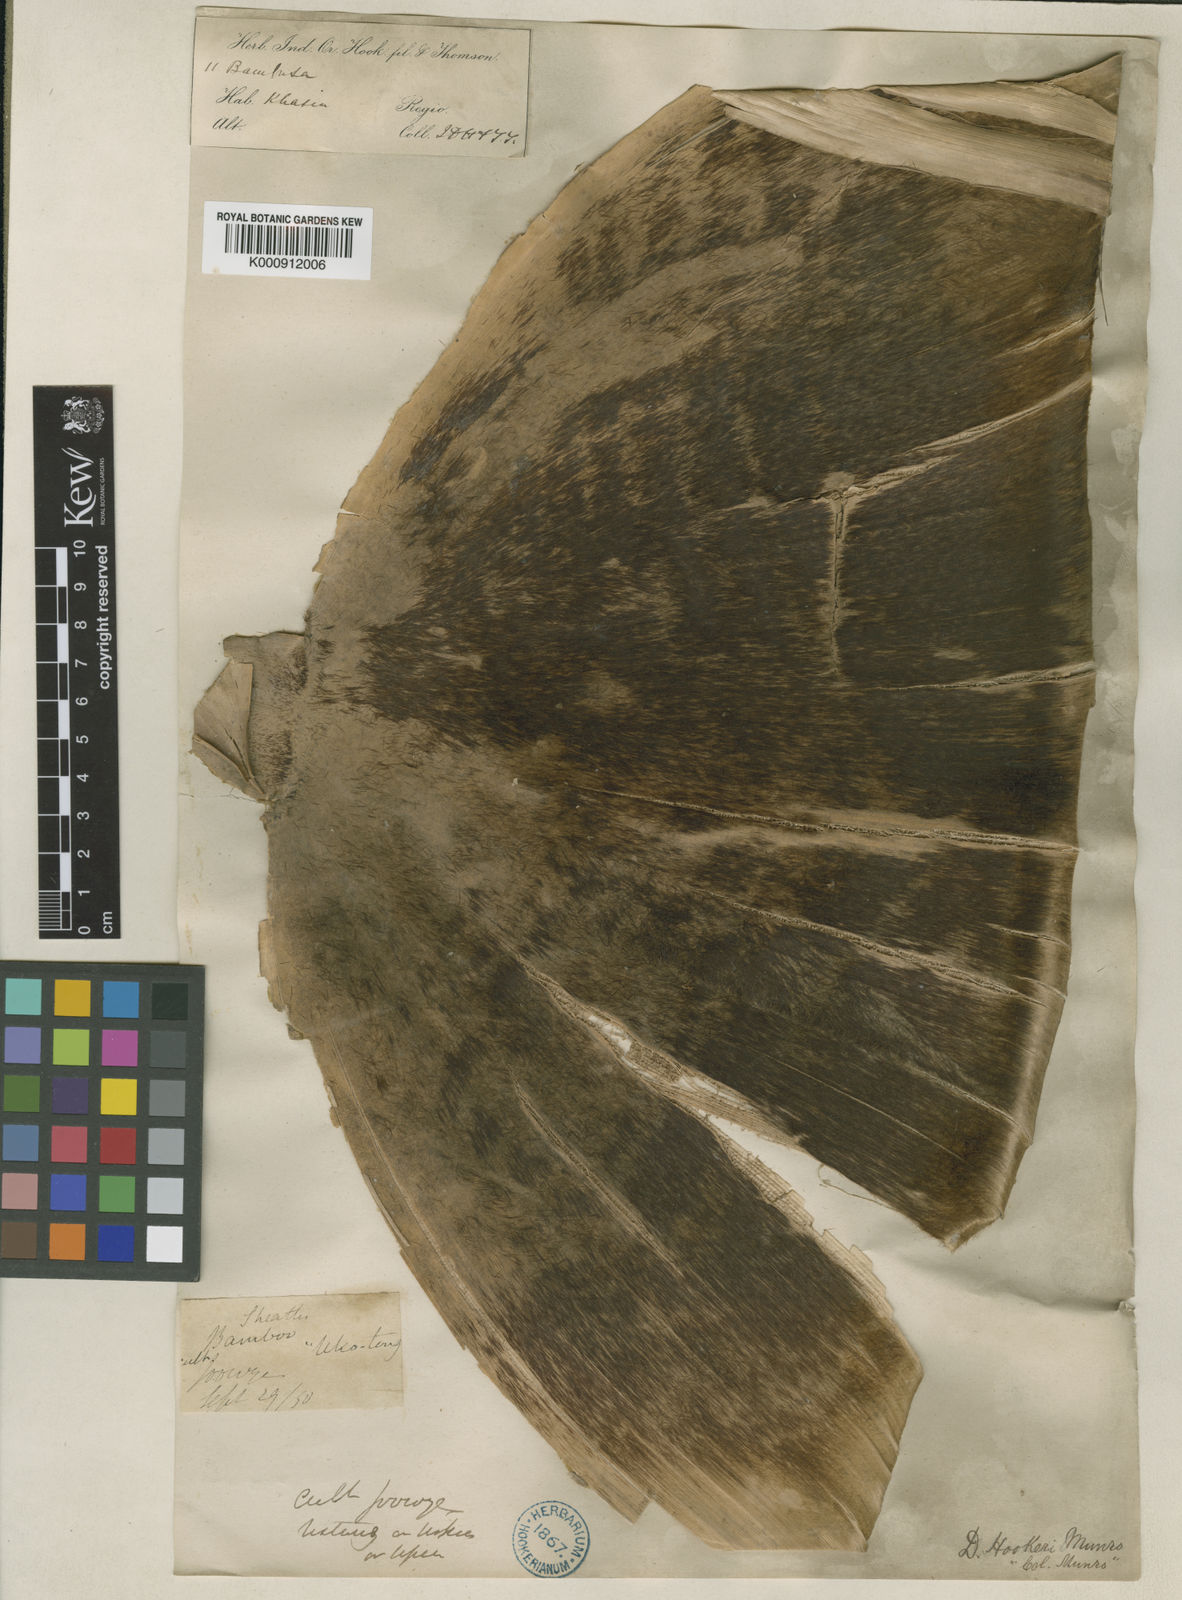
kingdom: Plantae
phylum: Tracheophyta
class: Liliopsida
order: Poales
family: Poaceae
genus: Dendrocalamus
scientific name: Dendrocalamus hookeri
